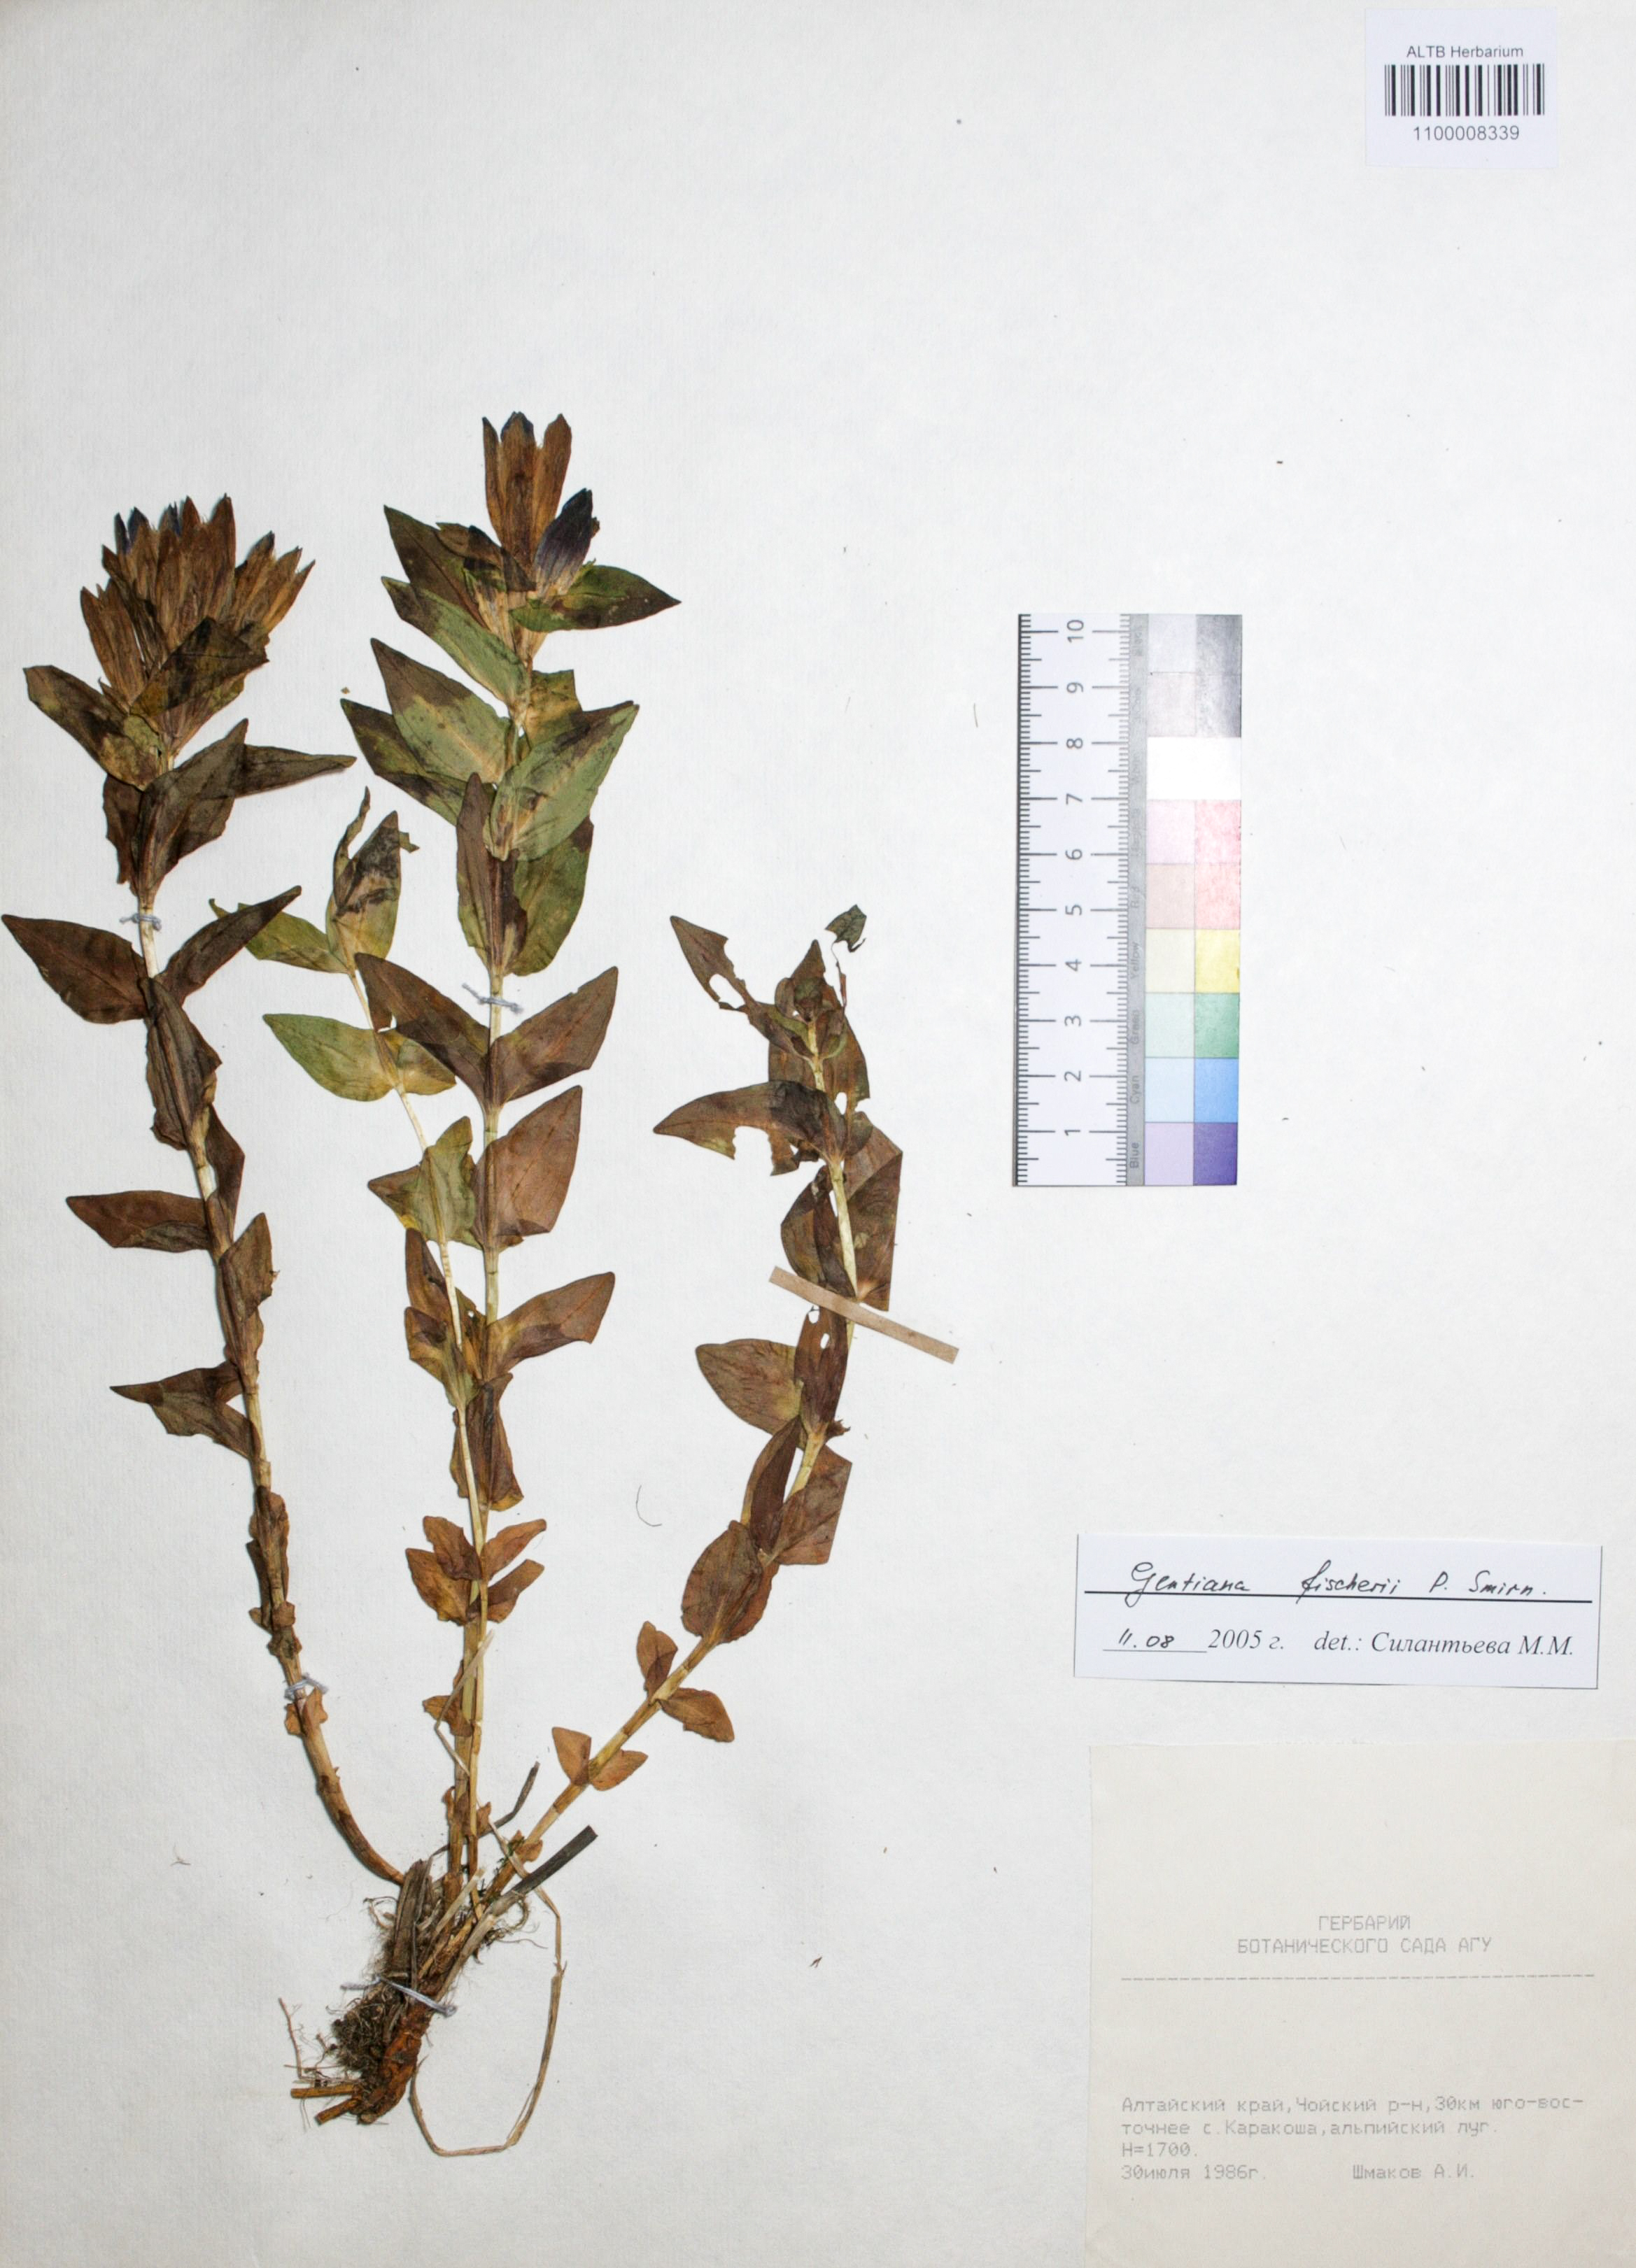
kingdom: Plantae
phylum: Tracheophyta
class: Magnoliopsida
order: Gentianales
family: Gentianaceae
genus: Gentiana
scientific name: Gentiana dschungarica
